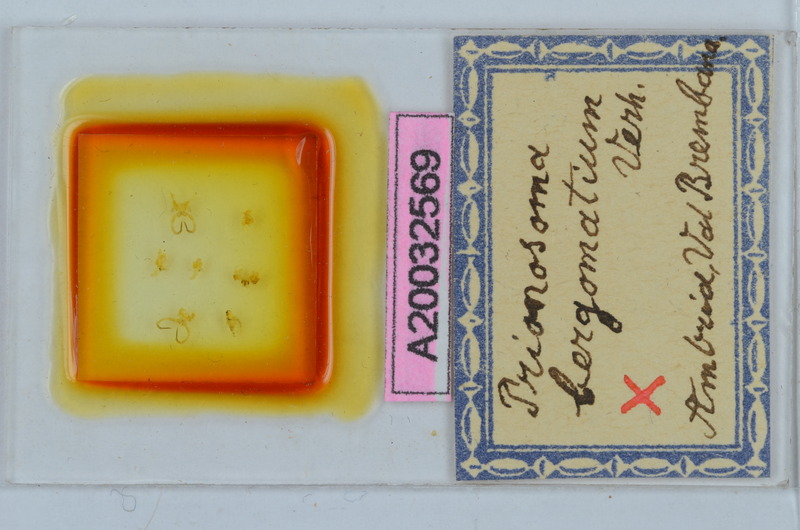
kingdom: Animalia
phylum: Arthropoda
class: Diplopoda
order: Chordeumatida
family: Craspedosomatidae
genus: Bergamosoma
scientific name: Bergamosoma bergomatium
